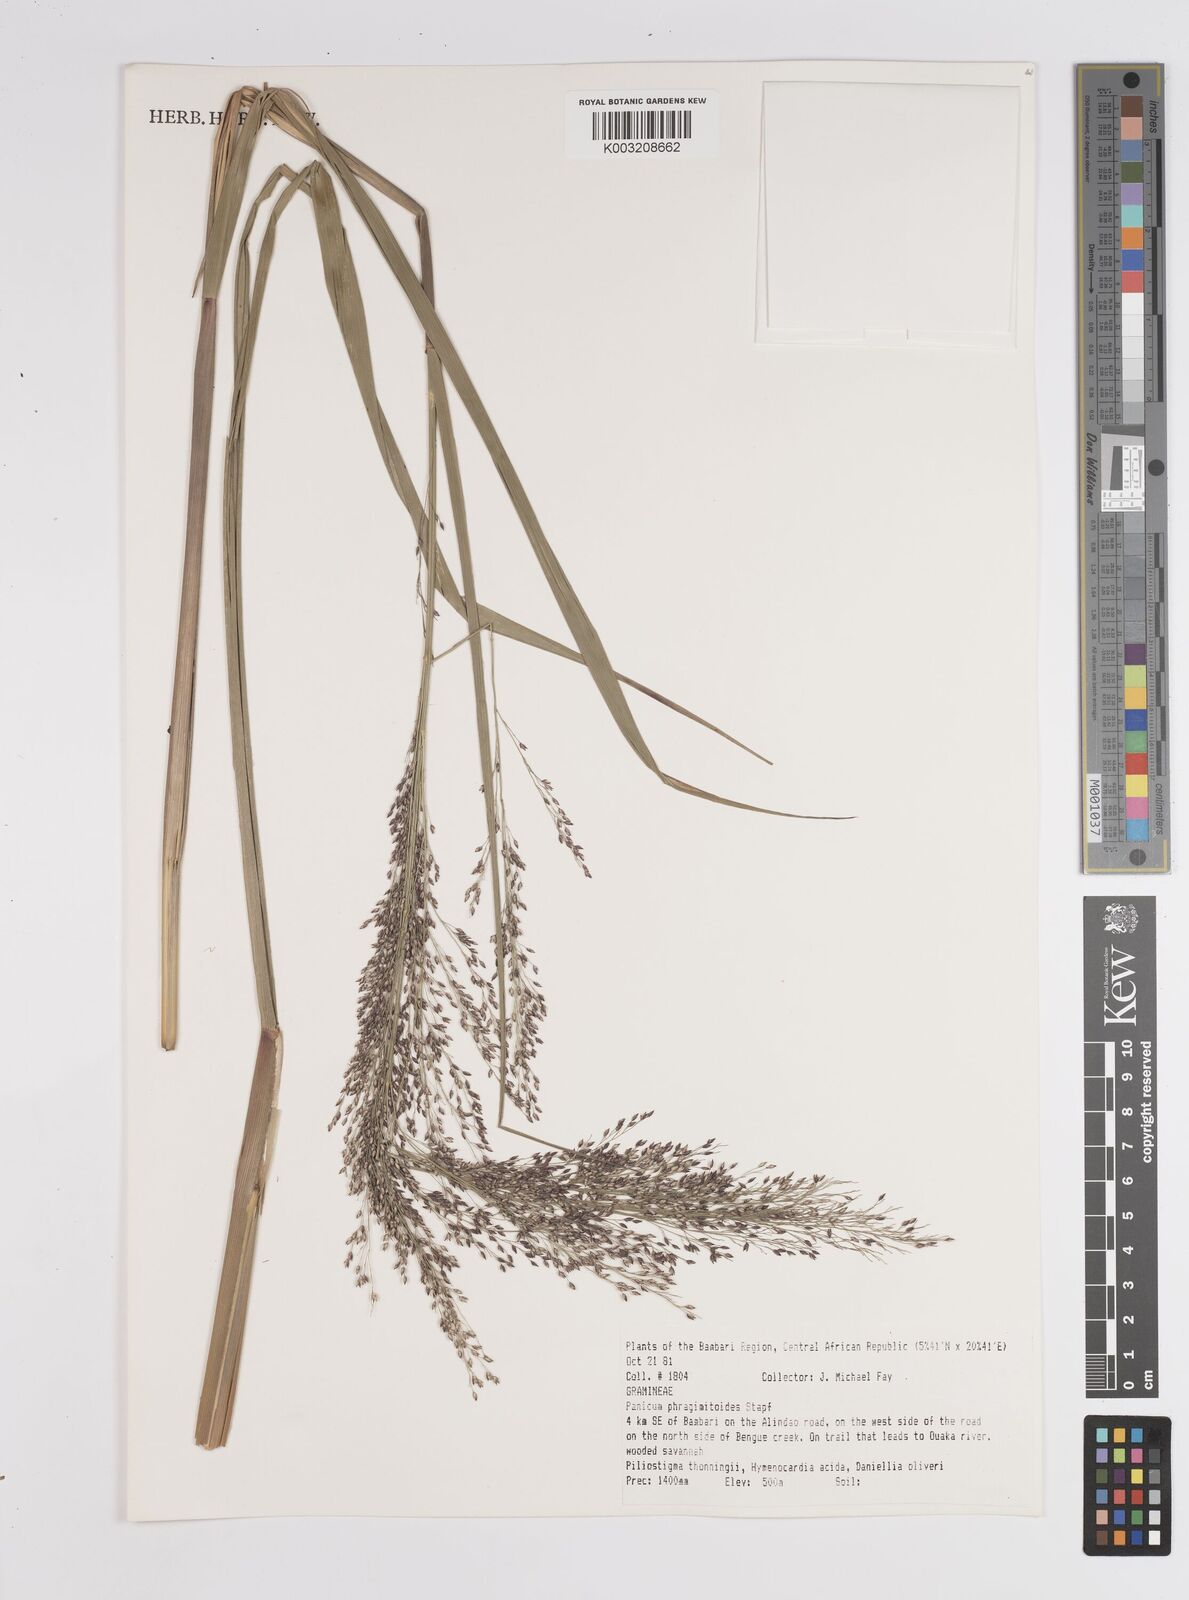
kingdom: Plantae
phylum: Tracheophyta
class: Liliopsida
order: Poales
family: Poaceae
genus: Panicum
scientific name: Panicum phragmitoides
